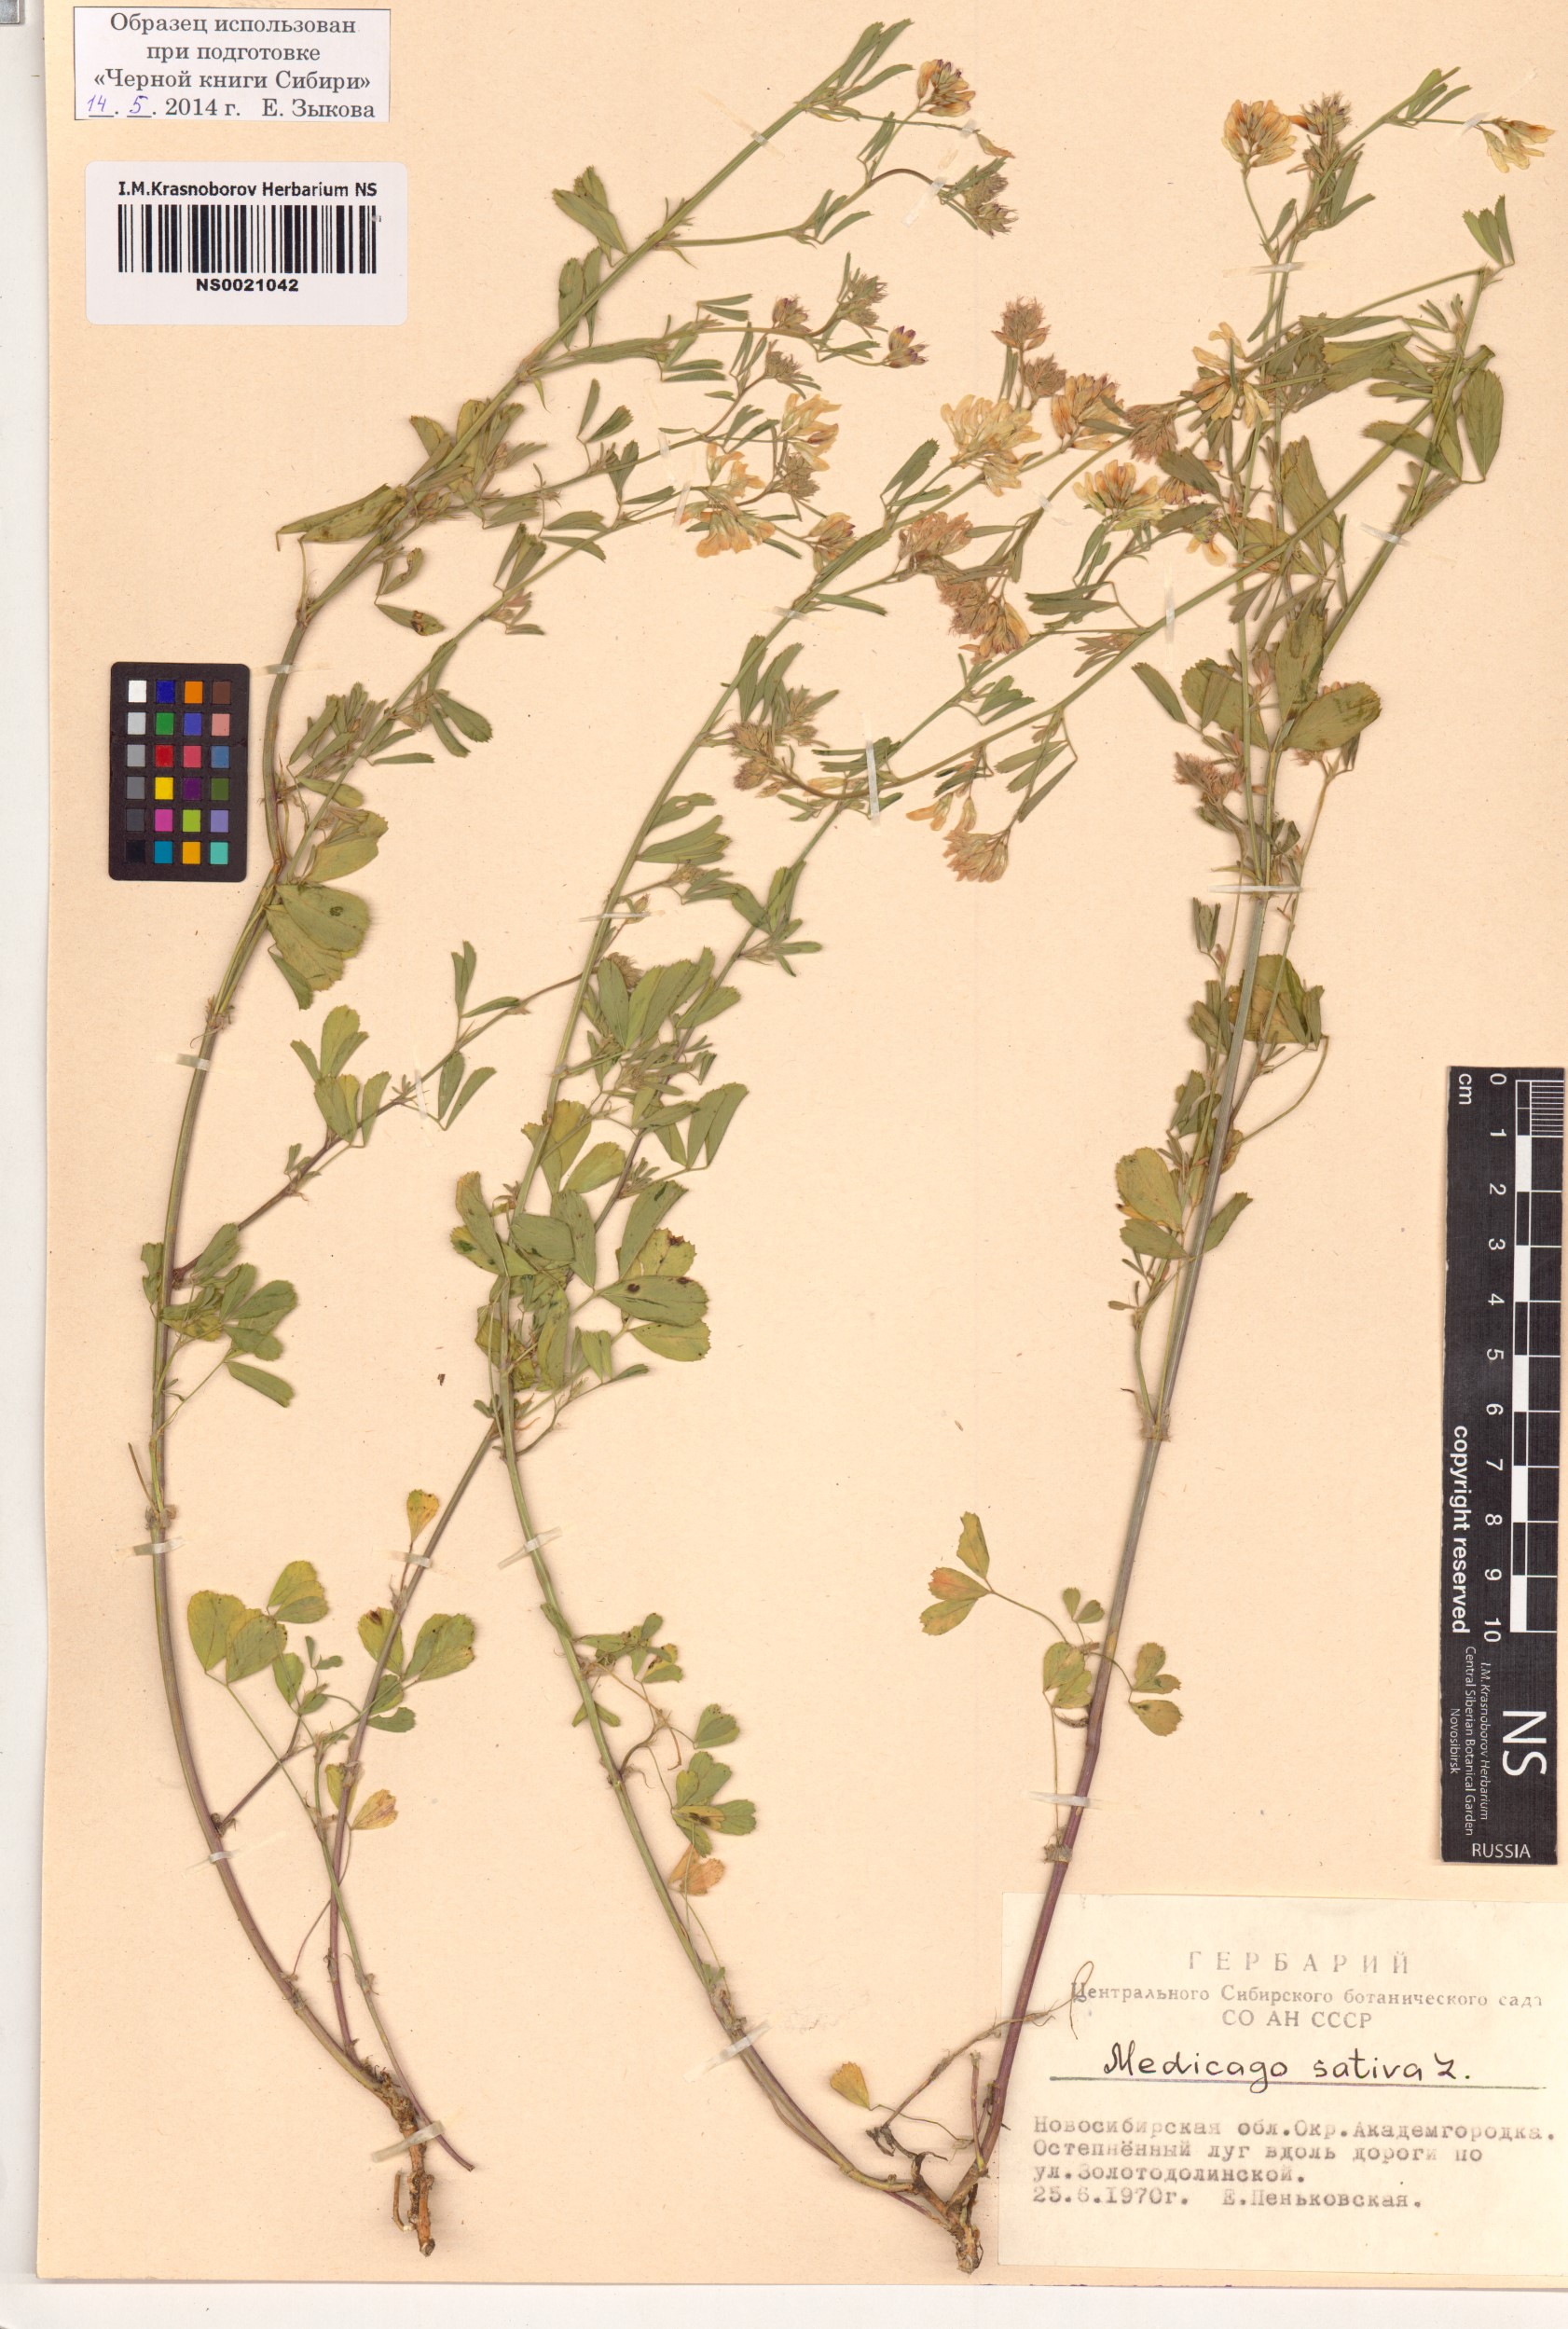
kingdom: Plantae
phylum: Tracheophyta
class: Magnoliopsida
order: Fabales
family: Fabaceae
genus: Medicago
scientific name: Medicago sativa
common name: Alfalfa
